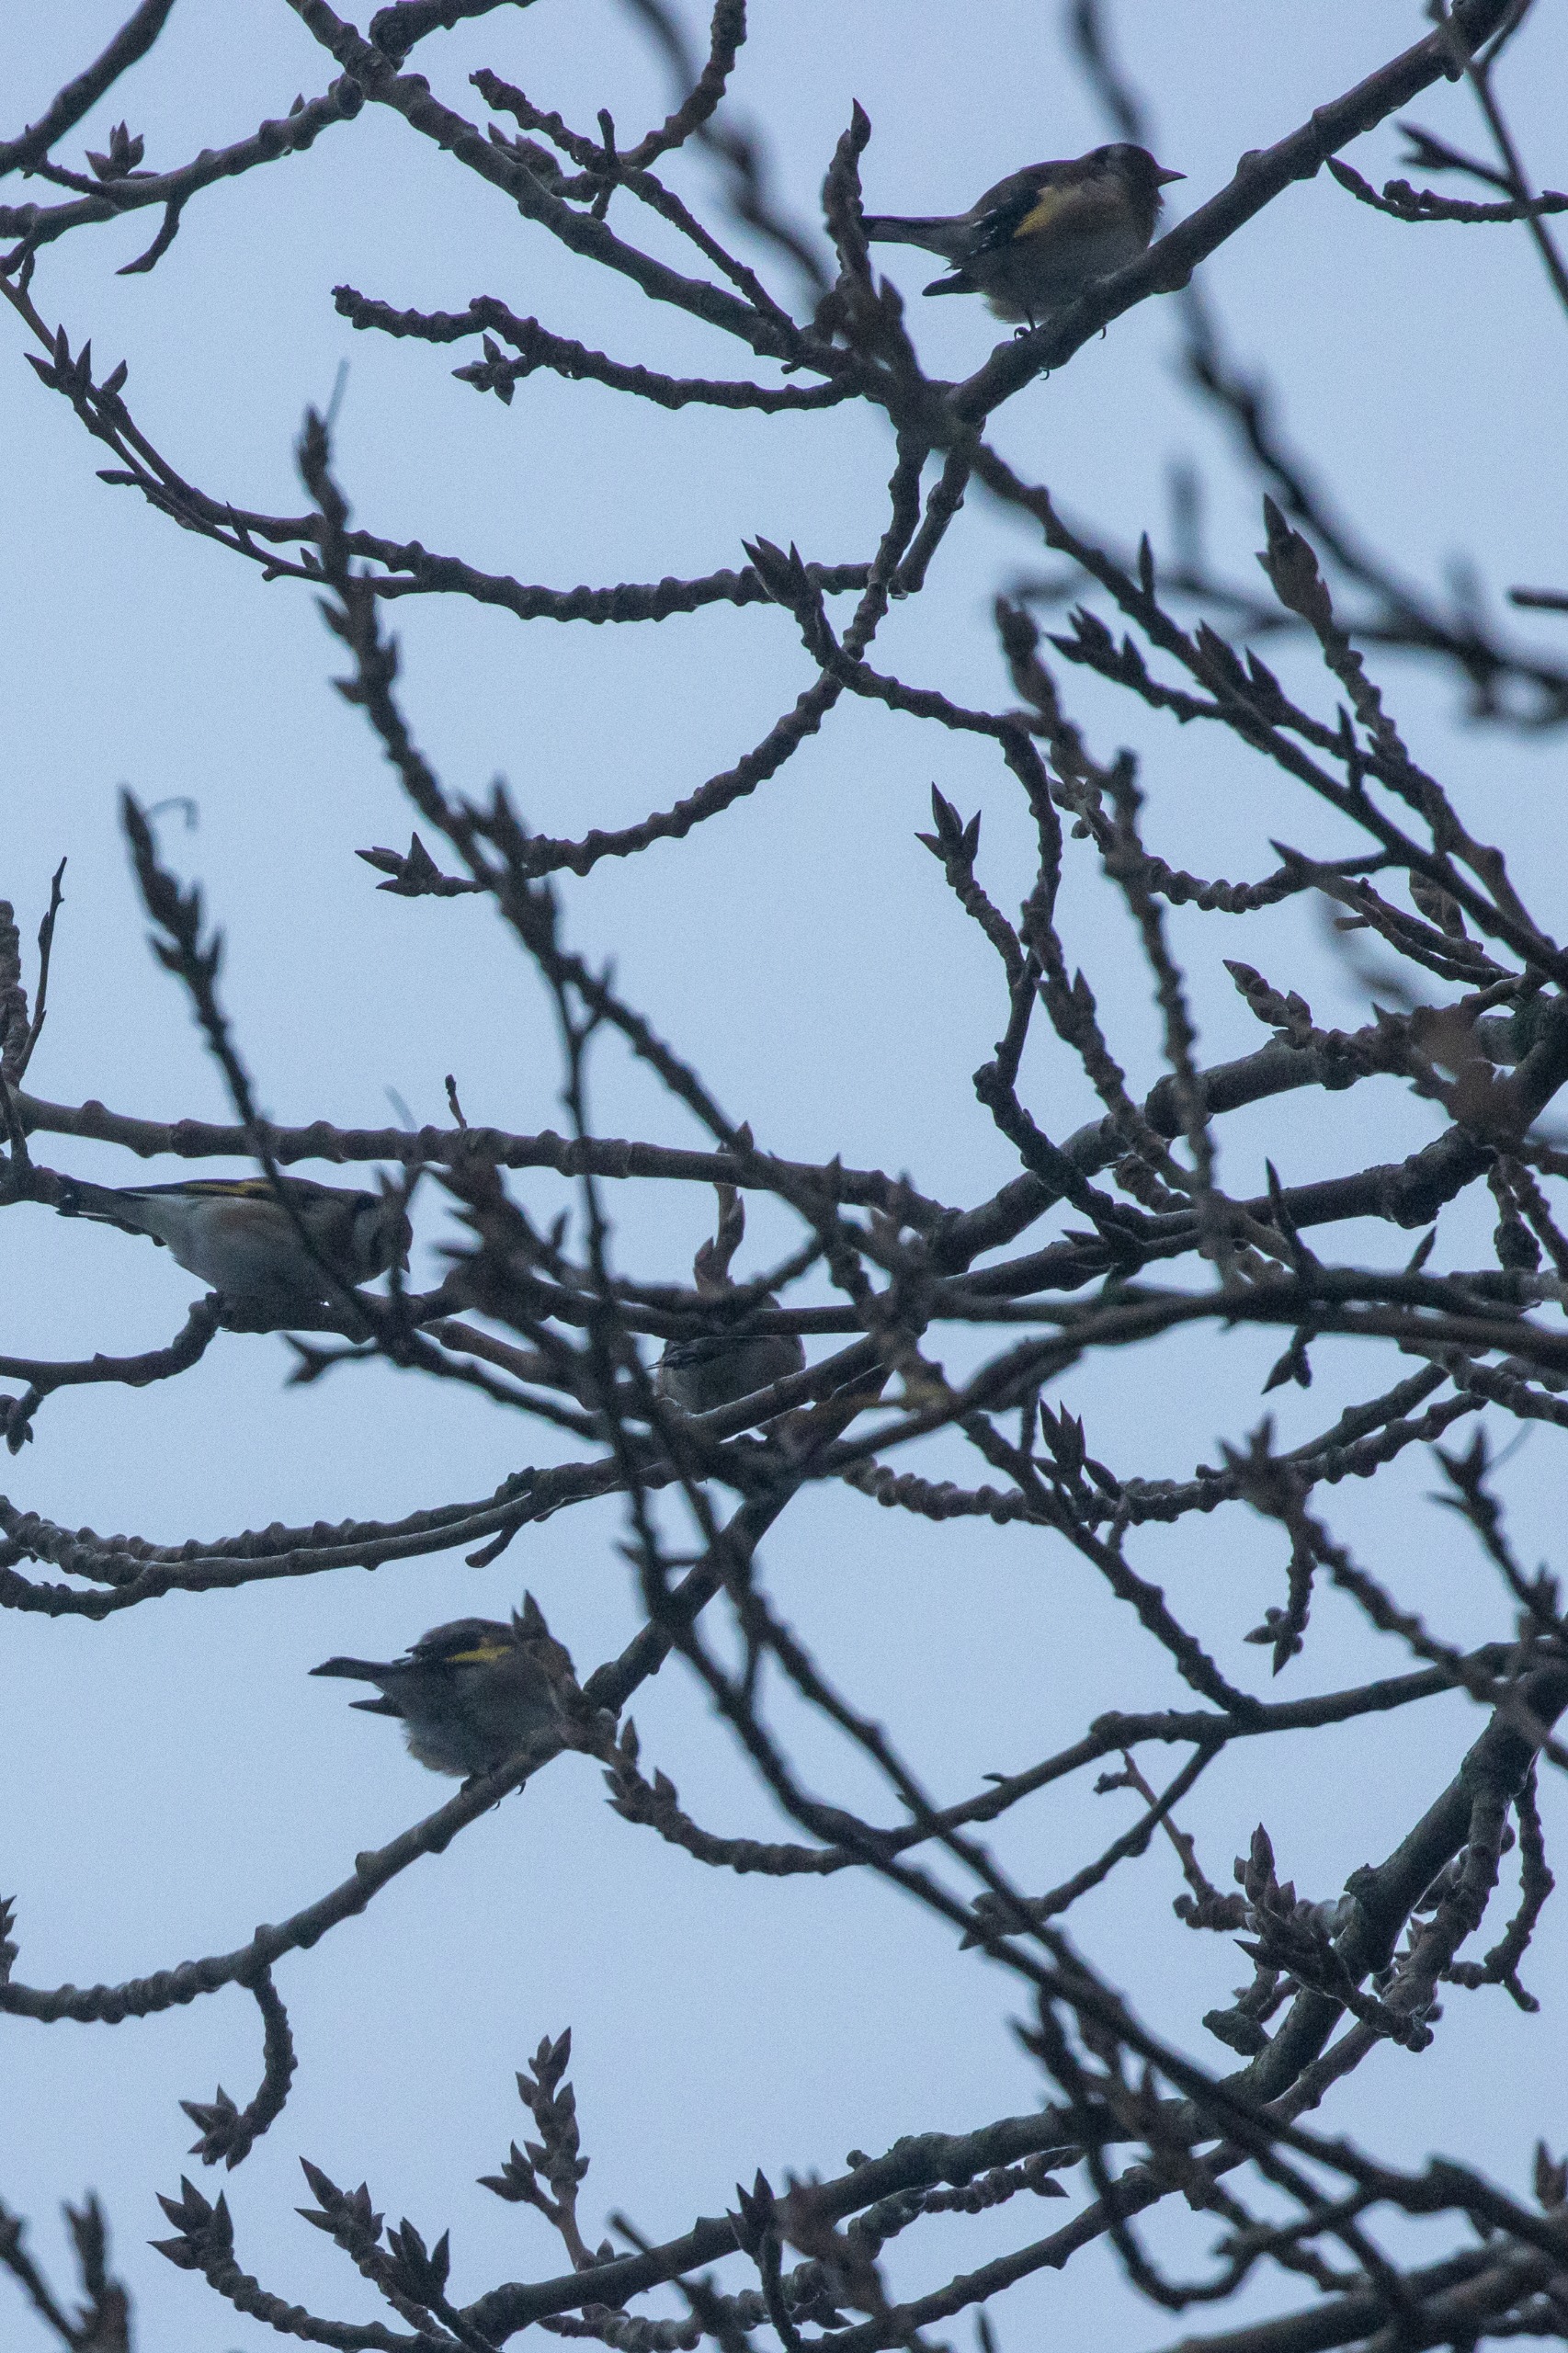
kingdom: Animalia
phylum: Chordata
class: Aves
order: Passeriformes
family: Fringillidae
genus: Carduelis
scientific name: Carduelis carduelis
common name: Stillits
